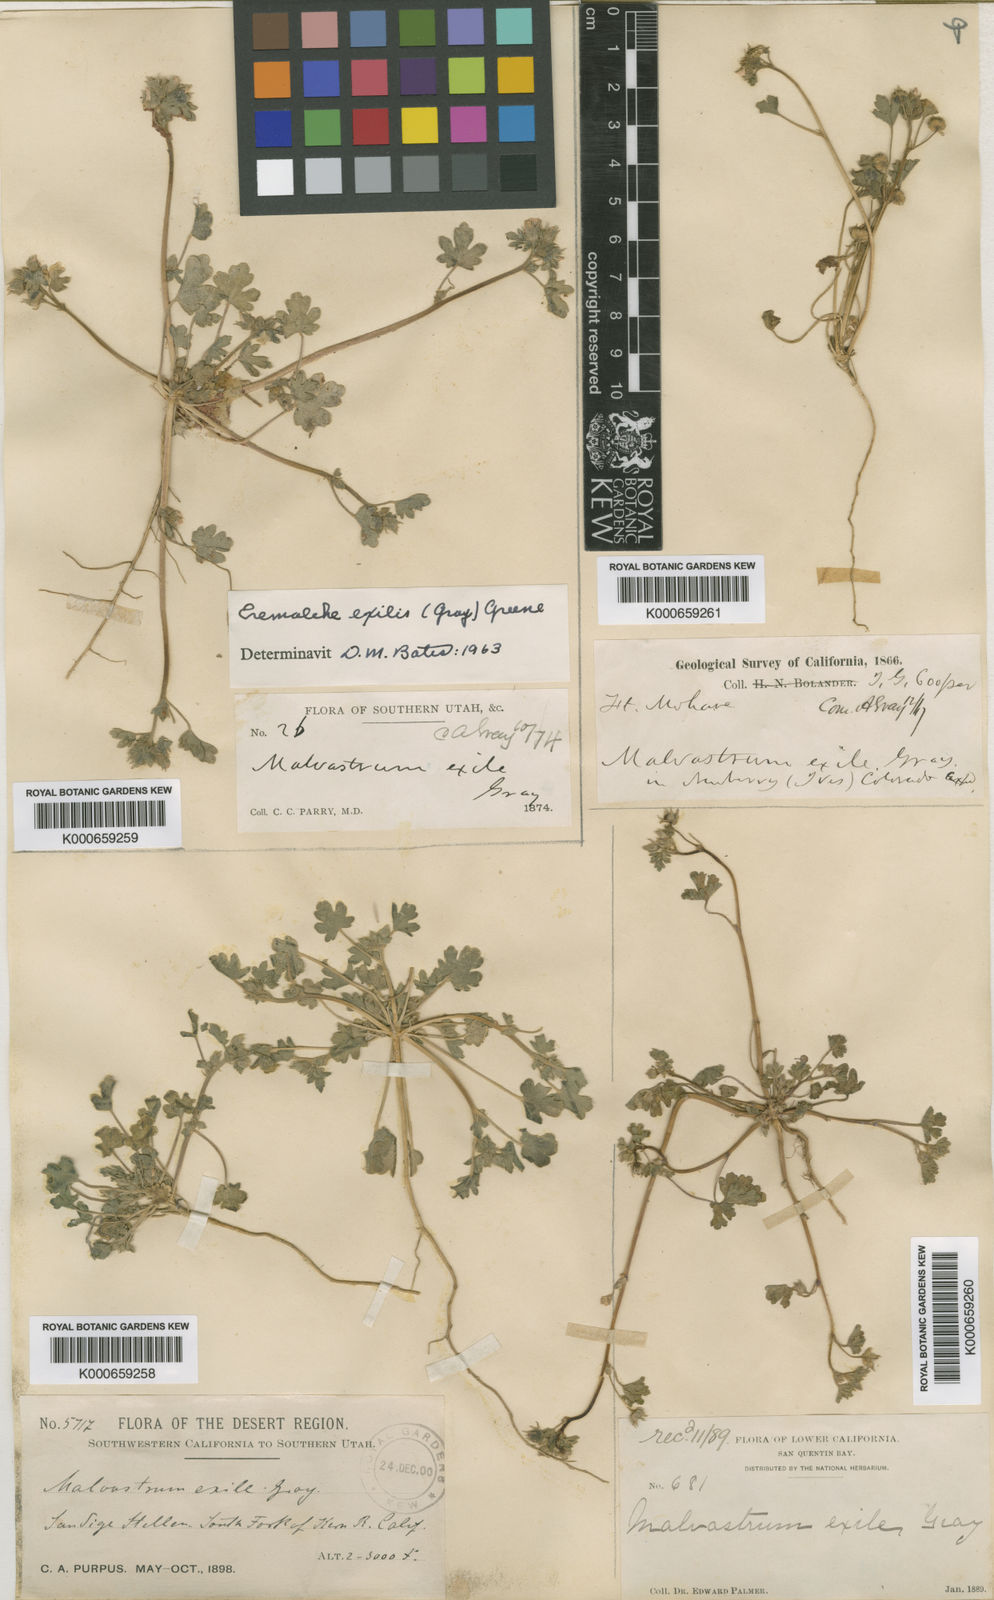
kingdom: Plantae
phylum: Tracheophyta
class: Magnoliopsida
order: Malvales
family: Malvaceae
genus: Eremalche
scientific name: Eremalche exilis
